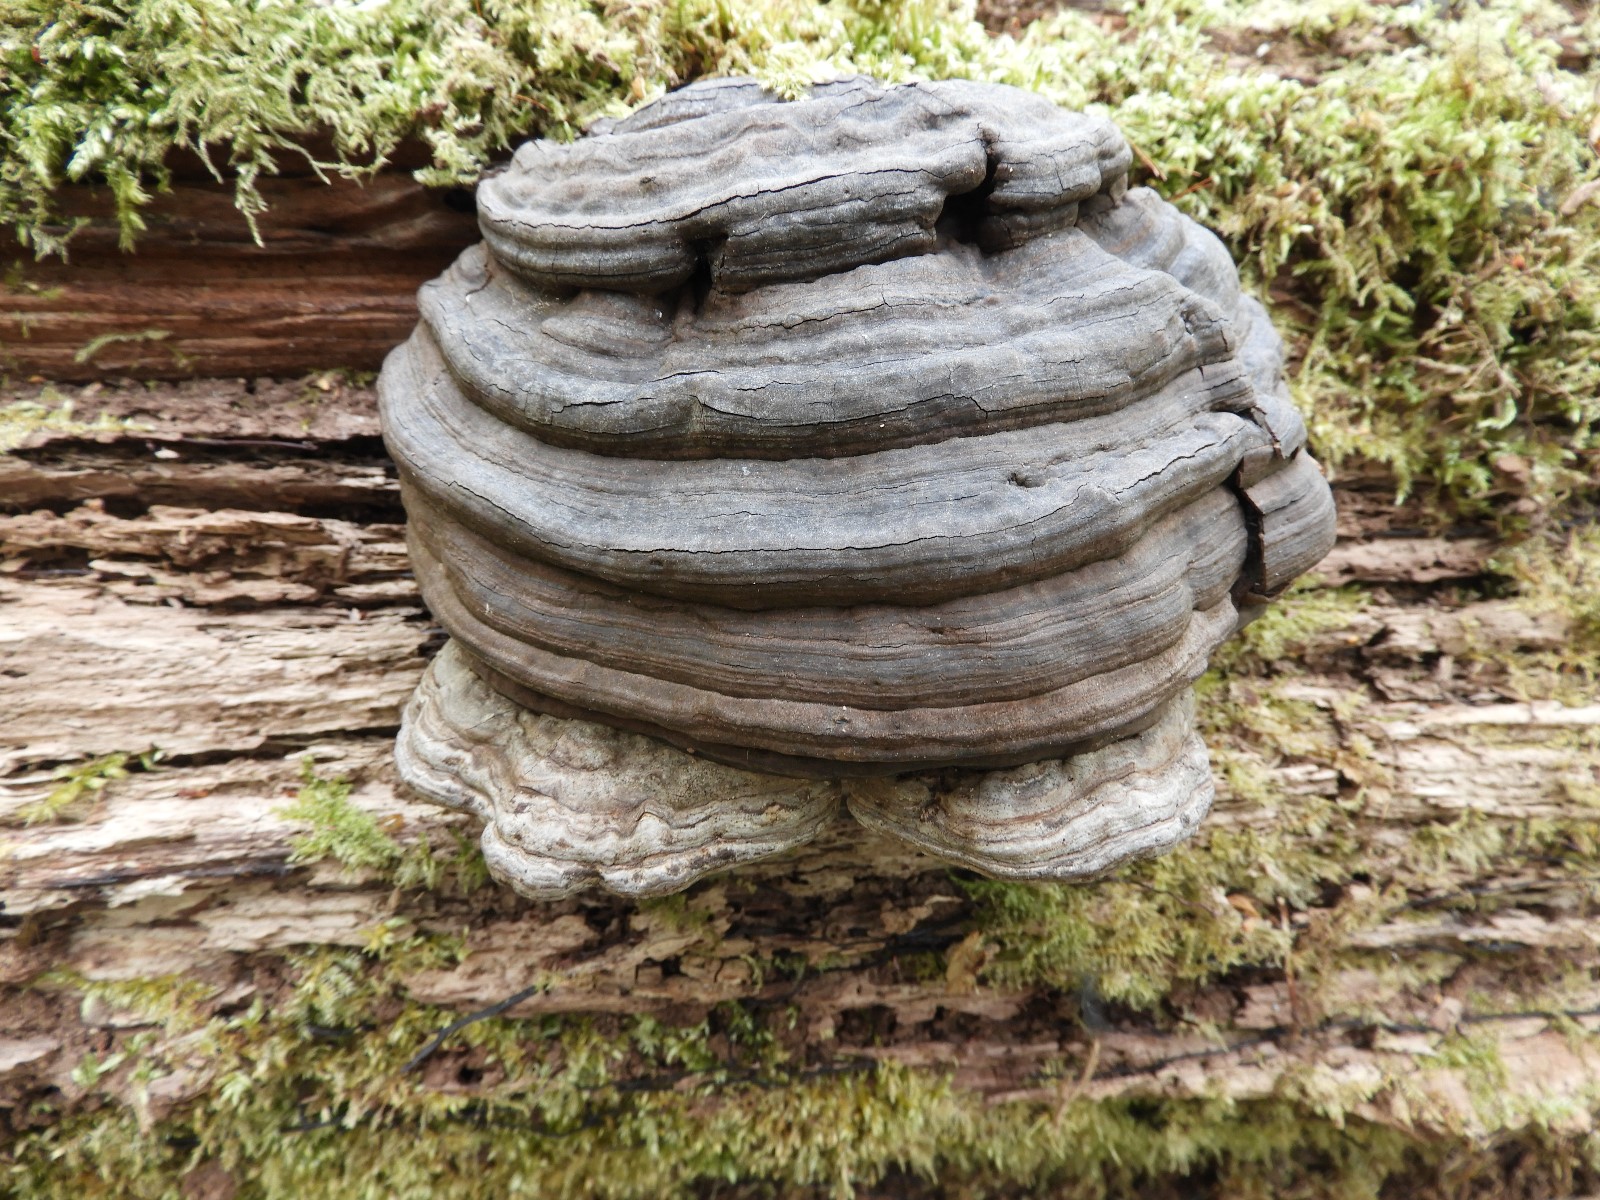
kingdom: Fungi
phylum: Basidiomycota
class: Agaricomycetes
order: Polyporales
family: Polyporaceae
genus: Fomes
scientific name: Fomes fomentarius
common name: tøndersvamp
